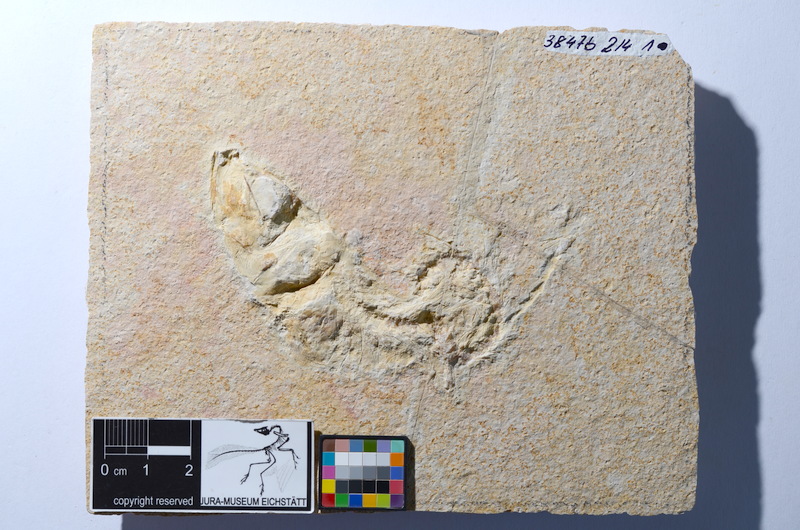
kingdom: Animalia
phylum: Chordata
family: Ascalaboidae
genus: Tharsis
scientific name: Tharsis dubius
